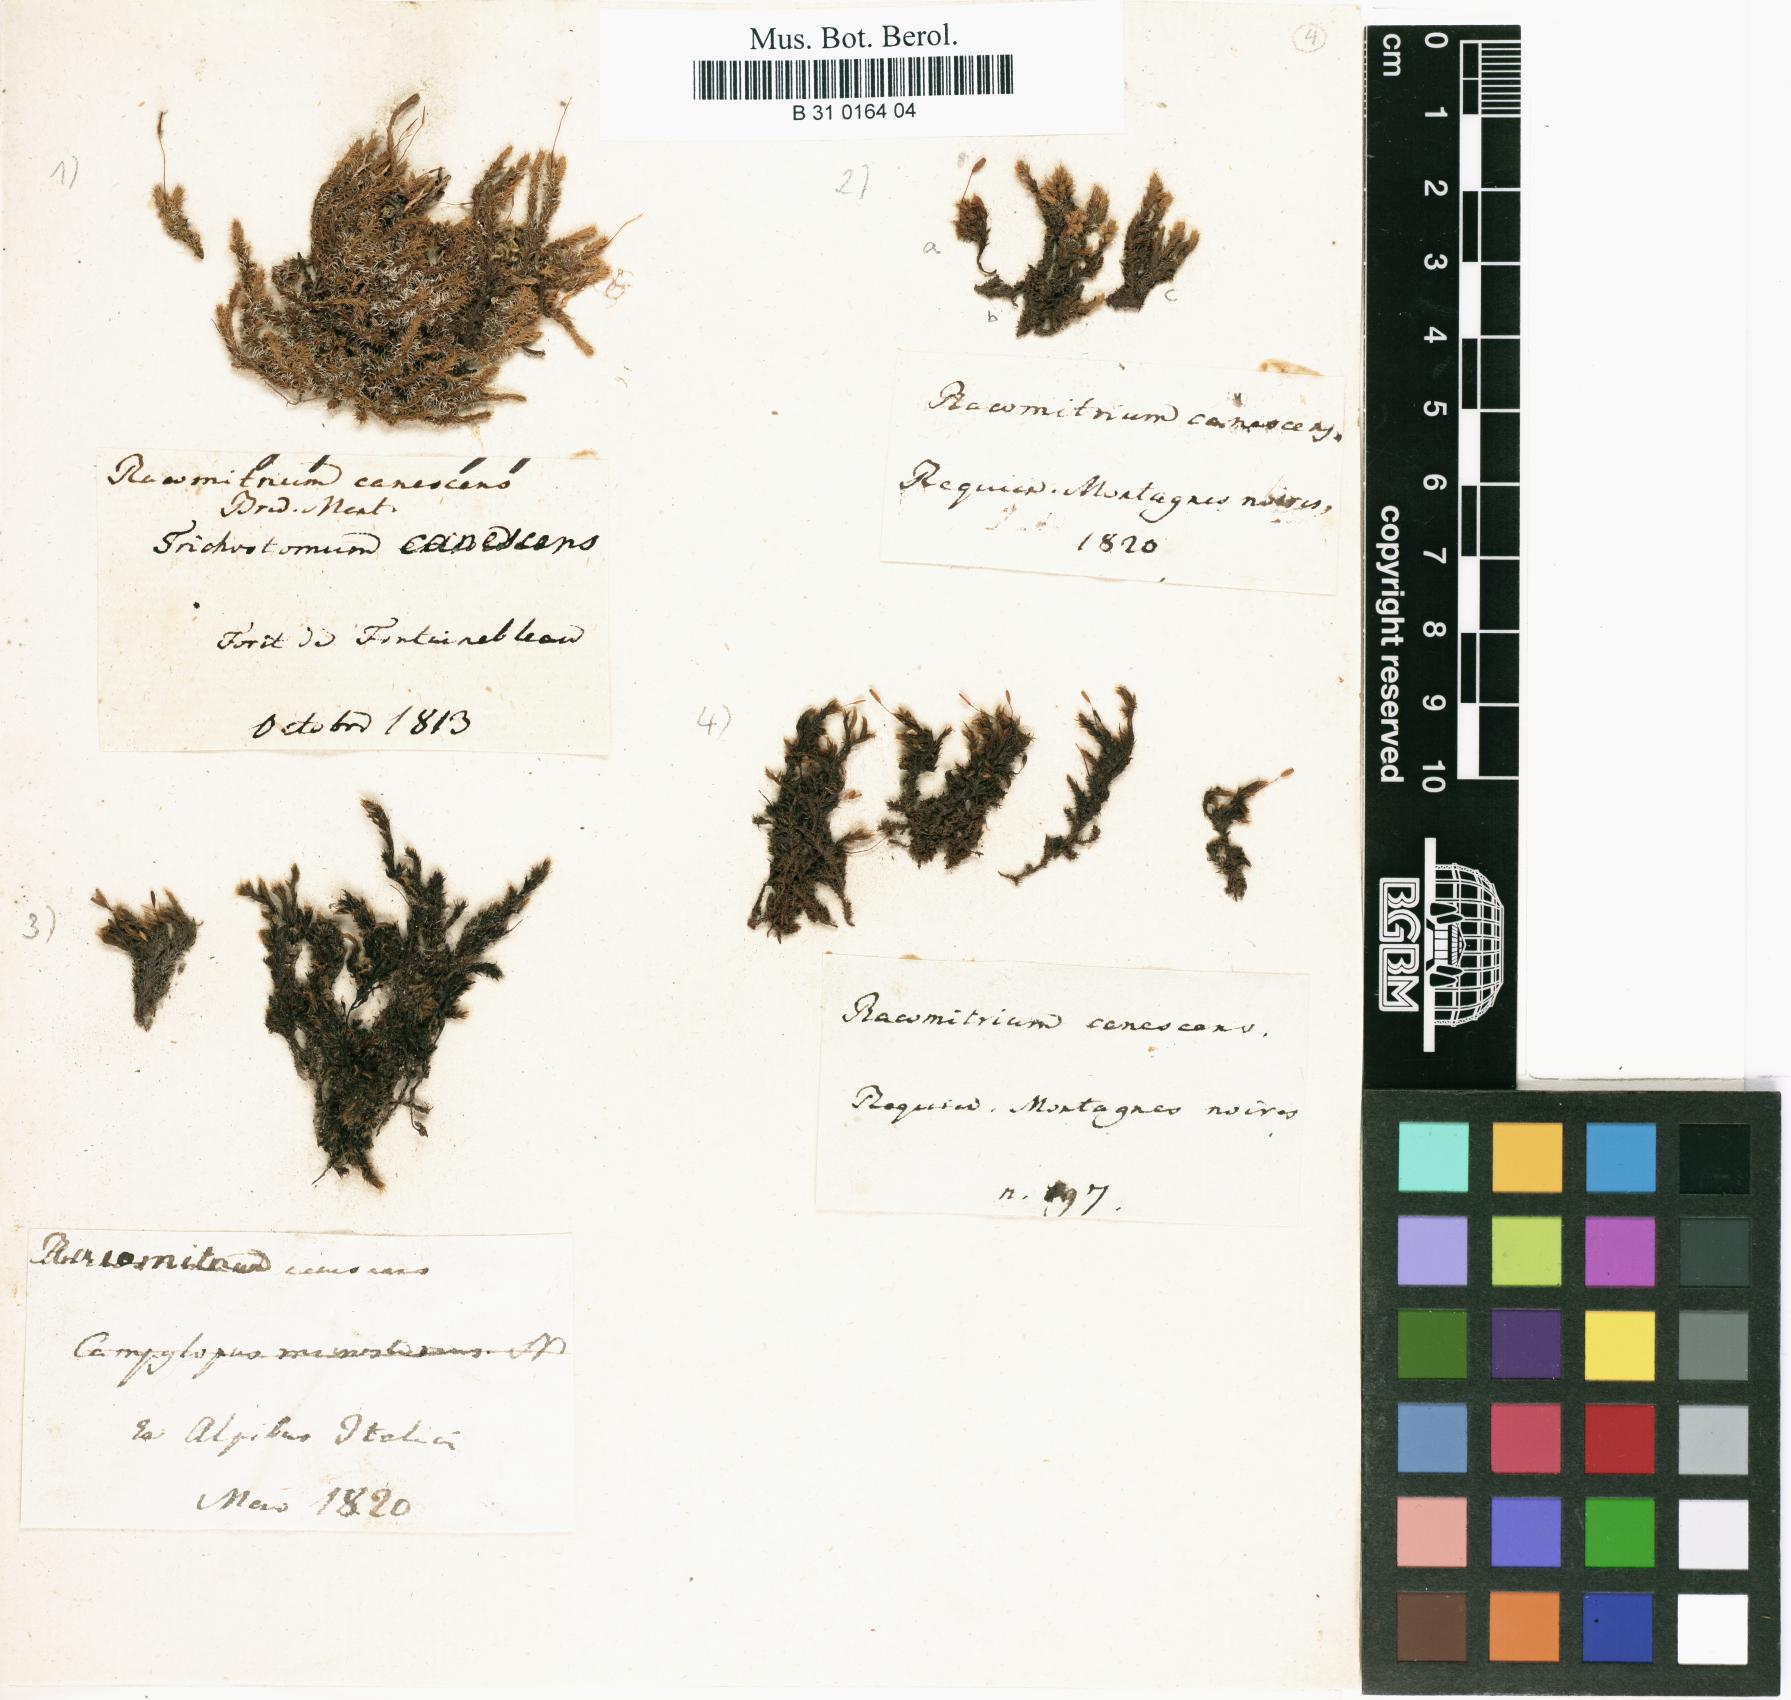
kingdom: Plantae
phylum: Bryophyta
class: Bryopsida
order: Grimmiales
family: Grimmiaceae
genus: Niphotrichum
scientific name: Niphotrichum canescens
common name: Hoary fringe-moss
